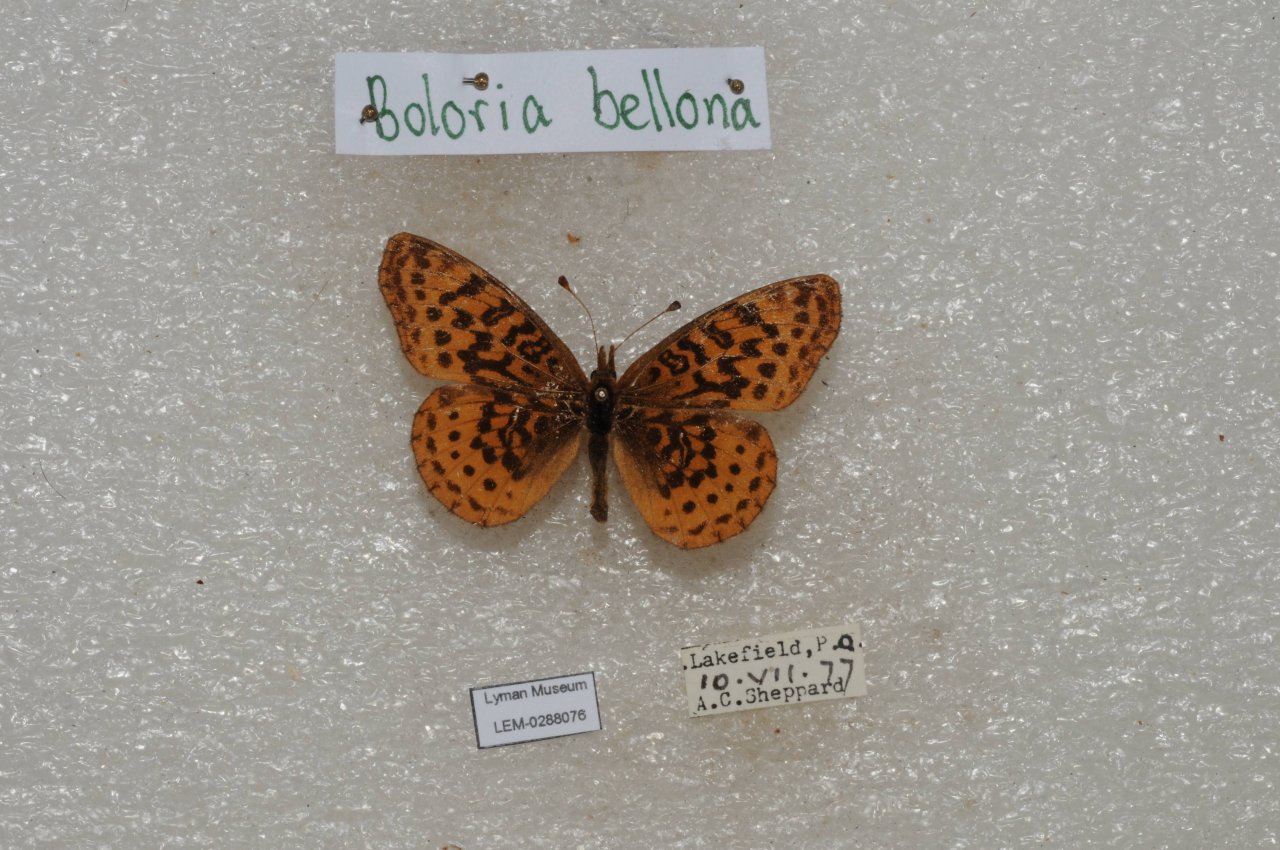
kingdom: Animalia
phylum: Arthropoda
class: Insecta
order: Lepidoptera
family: Nymphalidae
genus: Clossiana
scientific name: Clossiana toddi
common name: Meadow Fritillary
